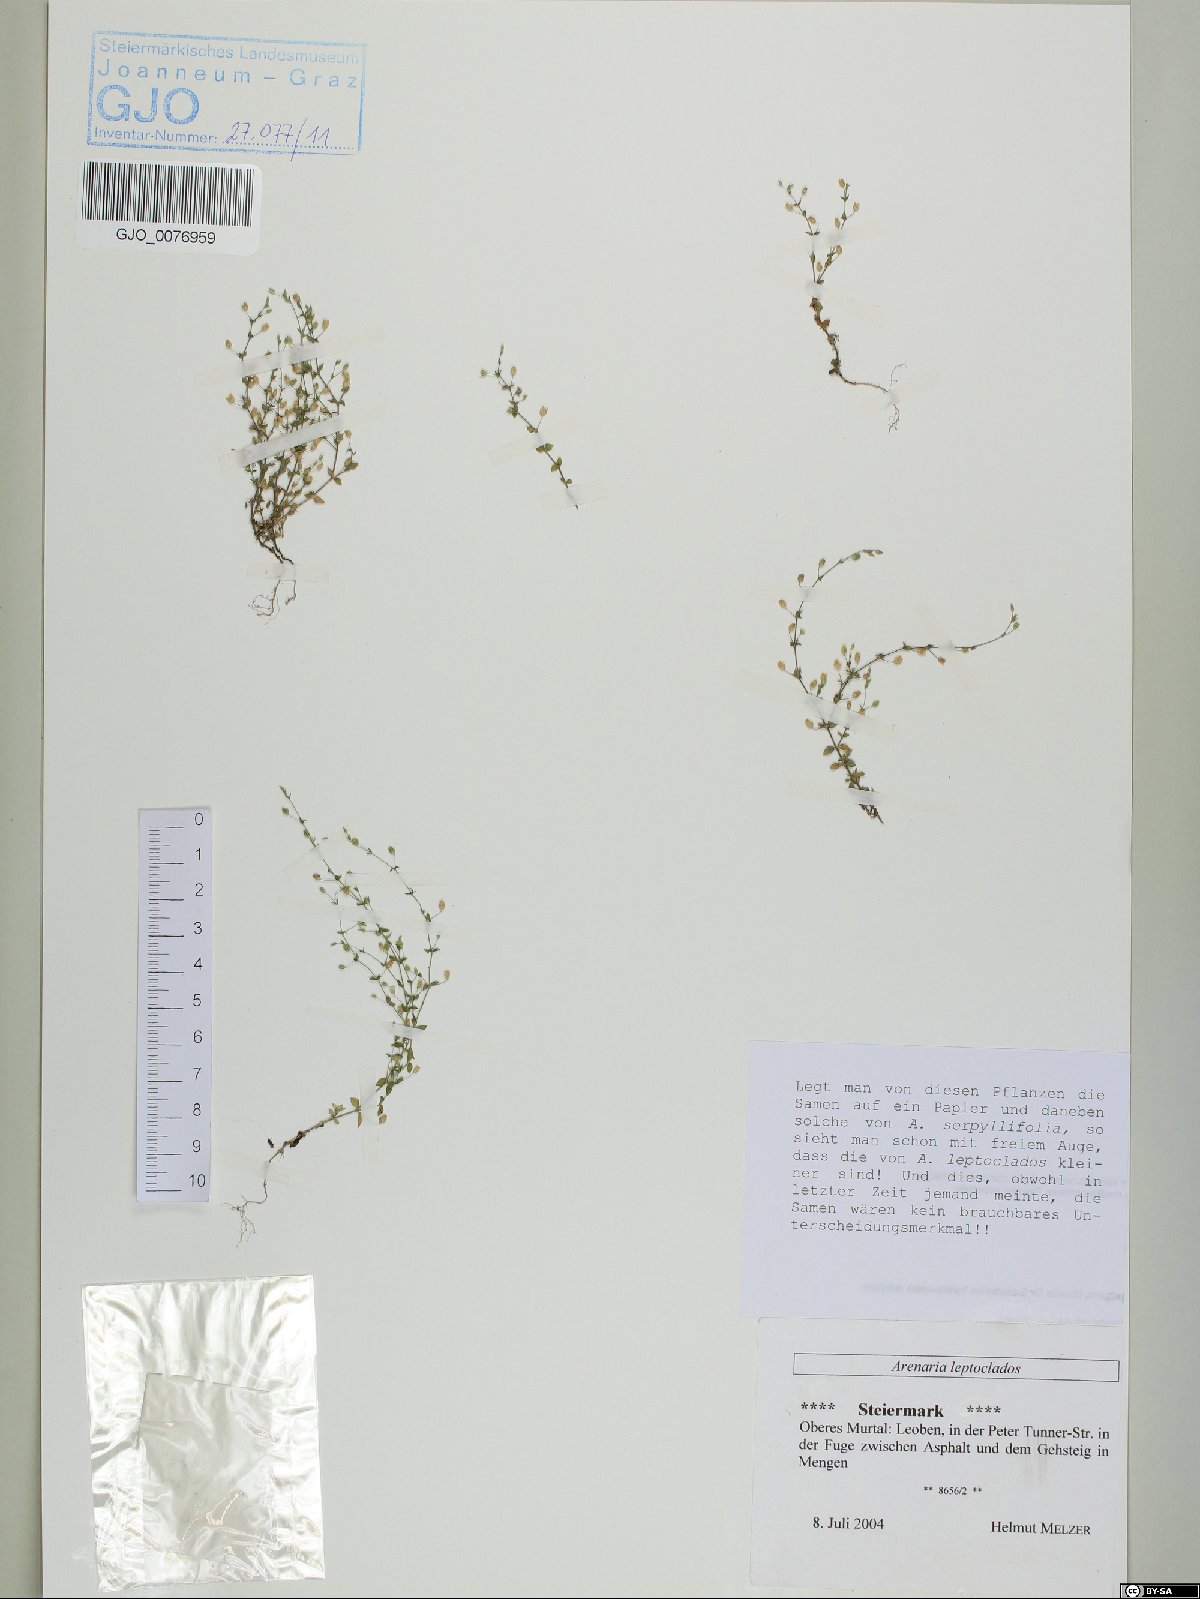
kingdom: Plantae
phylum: Tracheophyta
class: Magnoliopsida
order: Caryophyllales
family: Caryophyllaceae
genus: Arenaria
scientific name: Arenaria leptoclados
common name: Thyme-leaved sandwort
